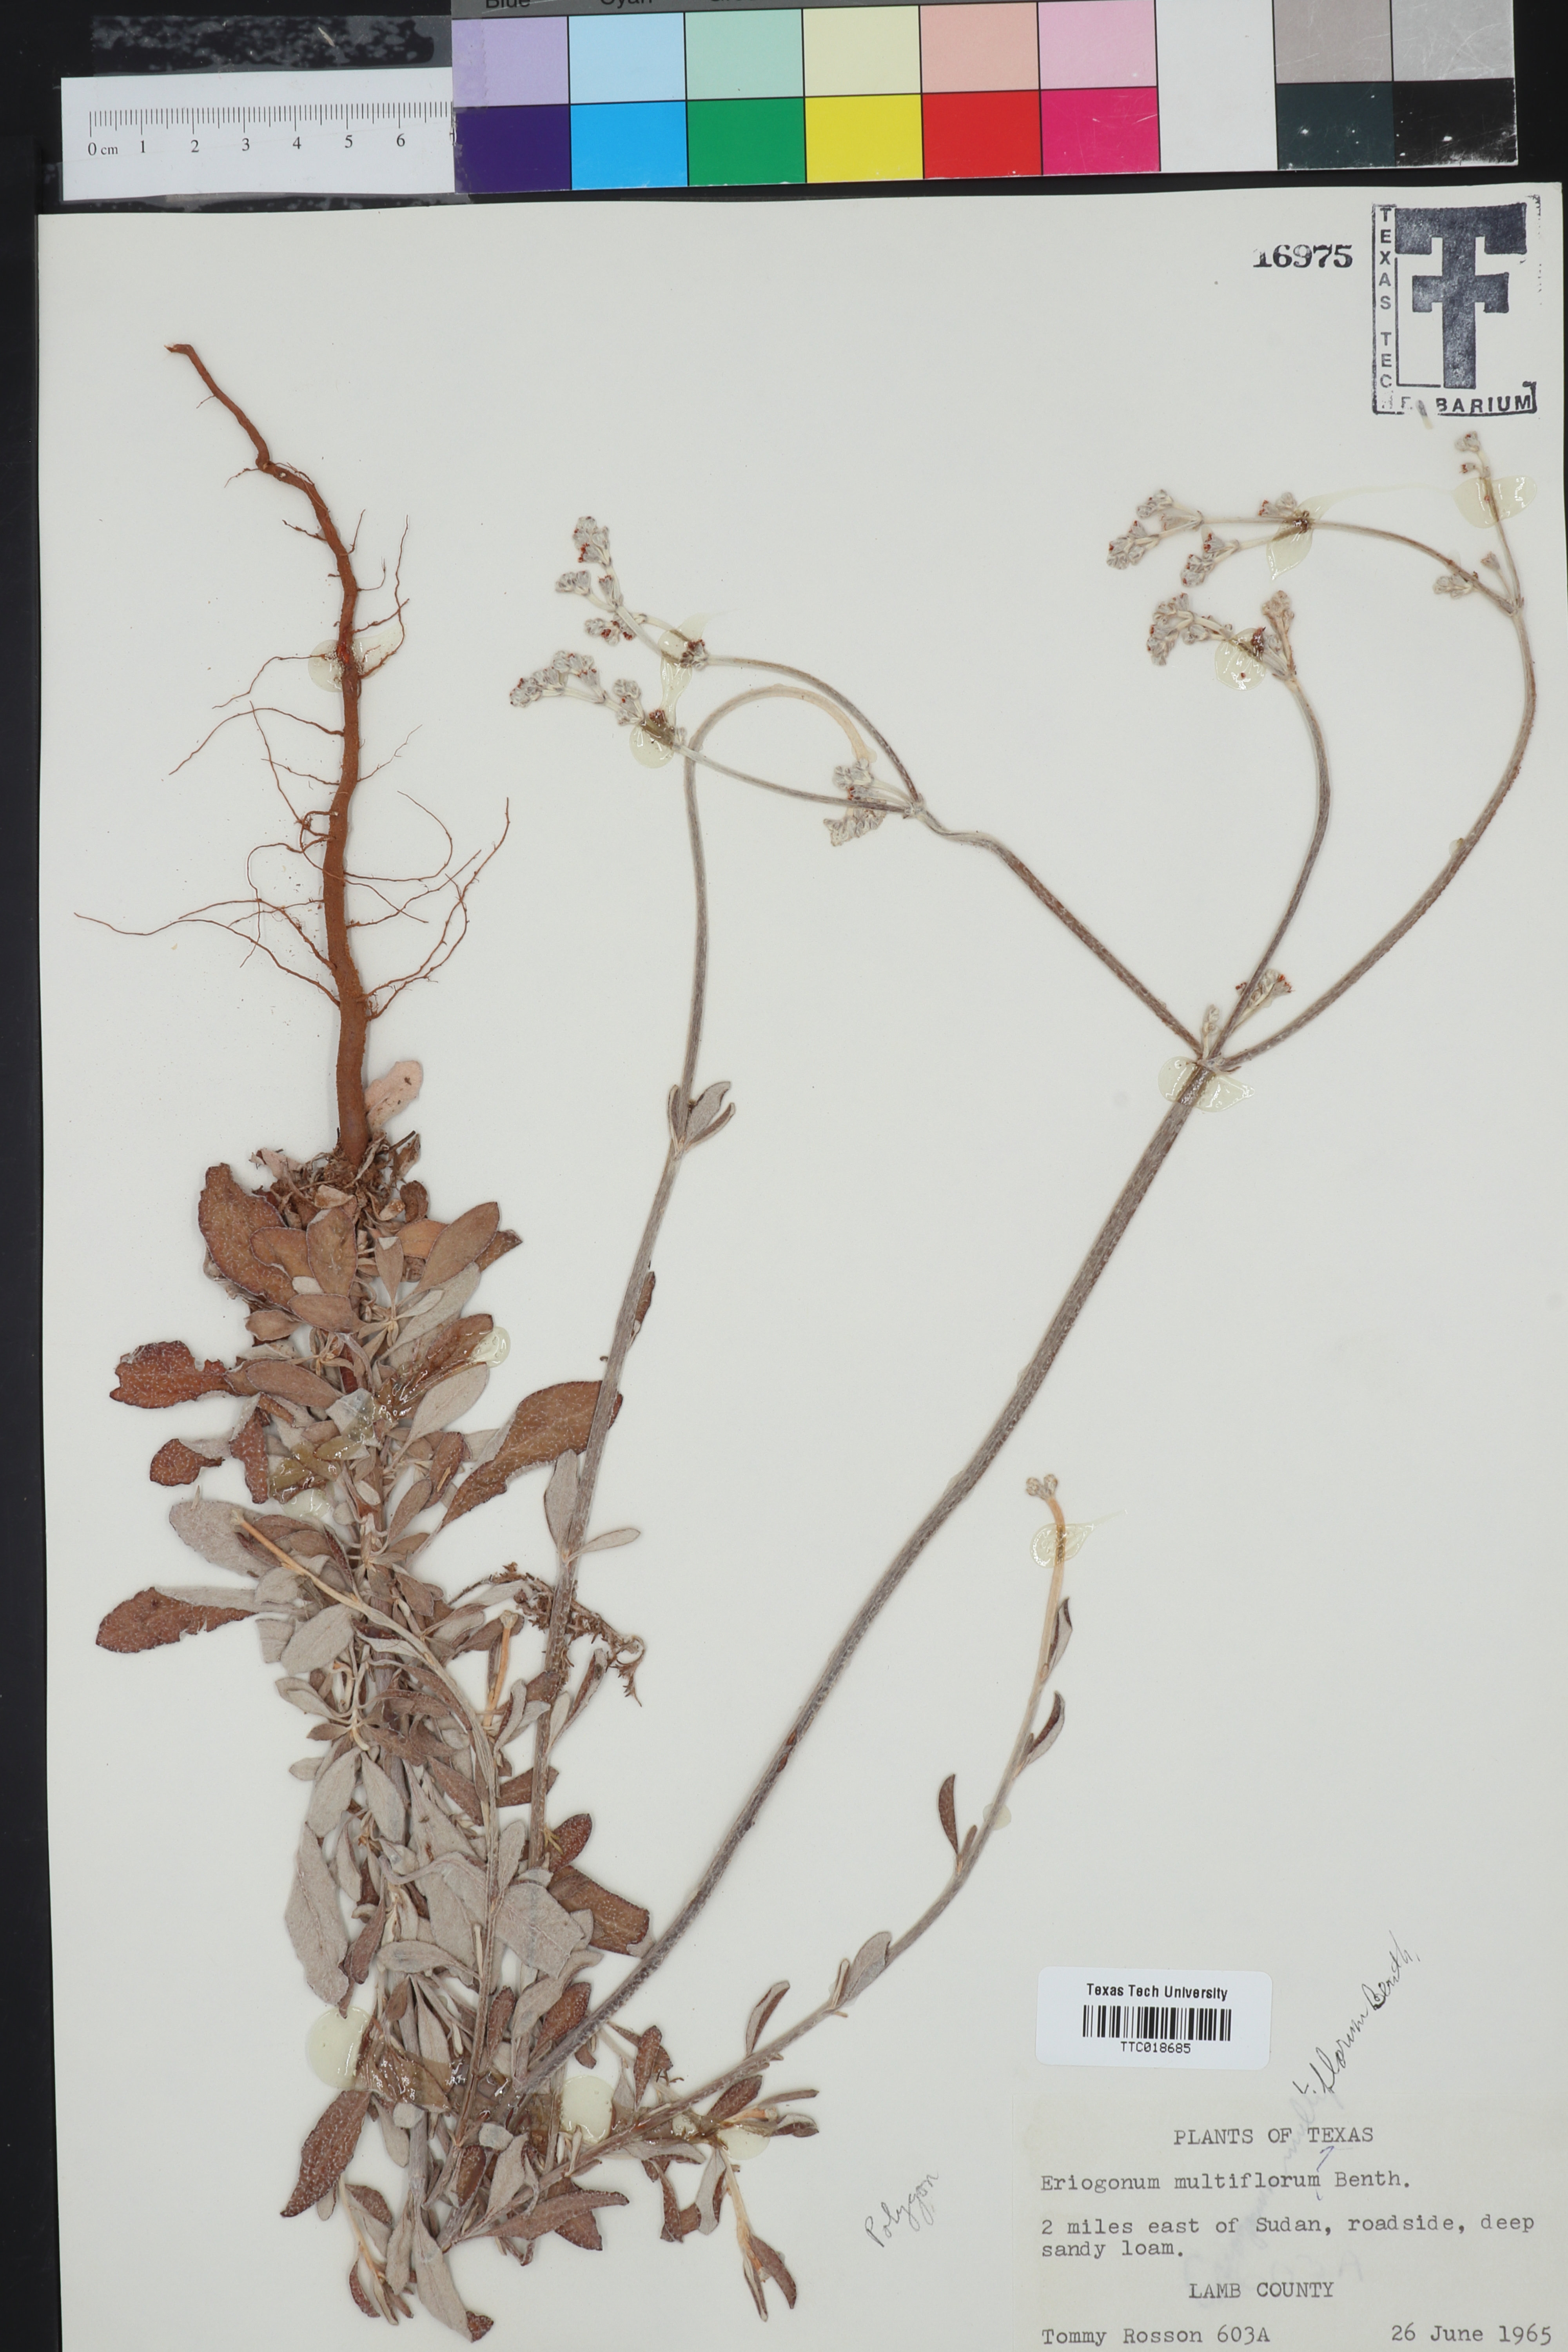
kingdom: Plantae
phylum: Tracheophyta
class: Magnoliopsida
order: Caryophyllales
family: Polygonaceae
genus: Eriogonum
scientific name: Eriogonum multiflorum
